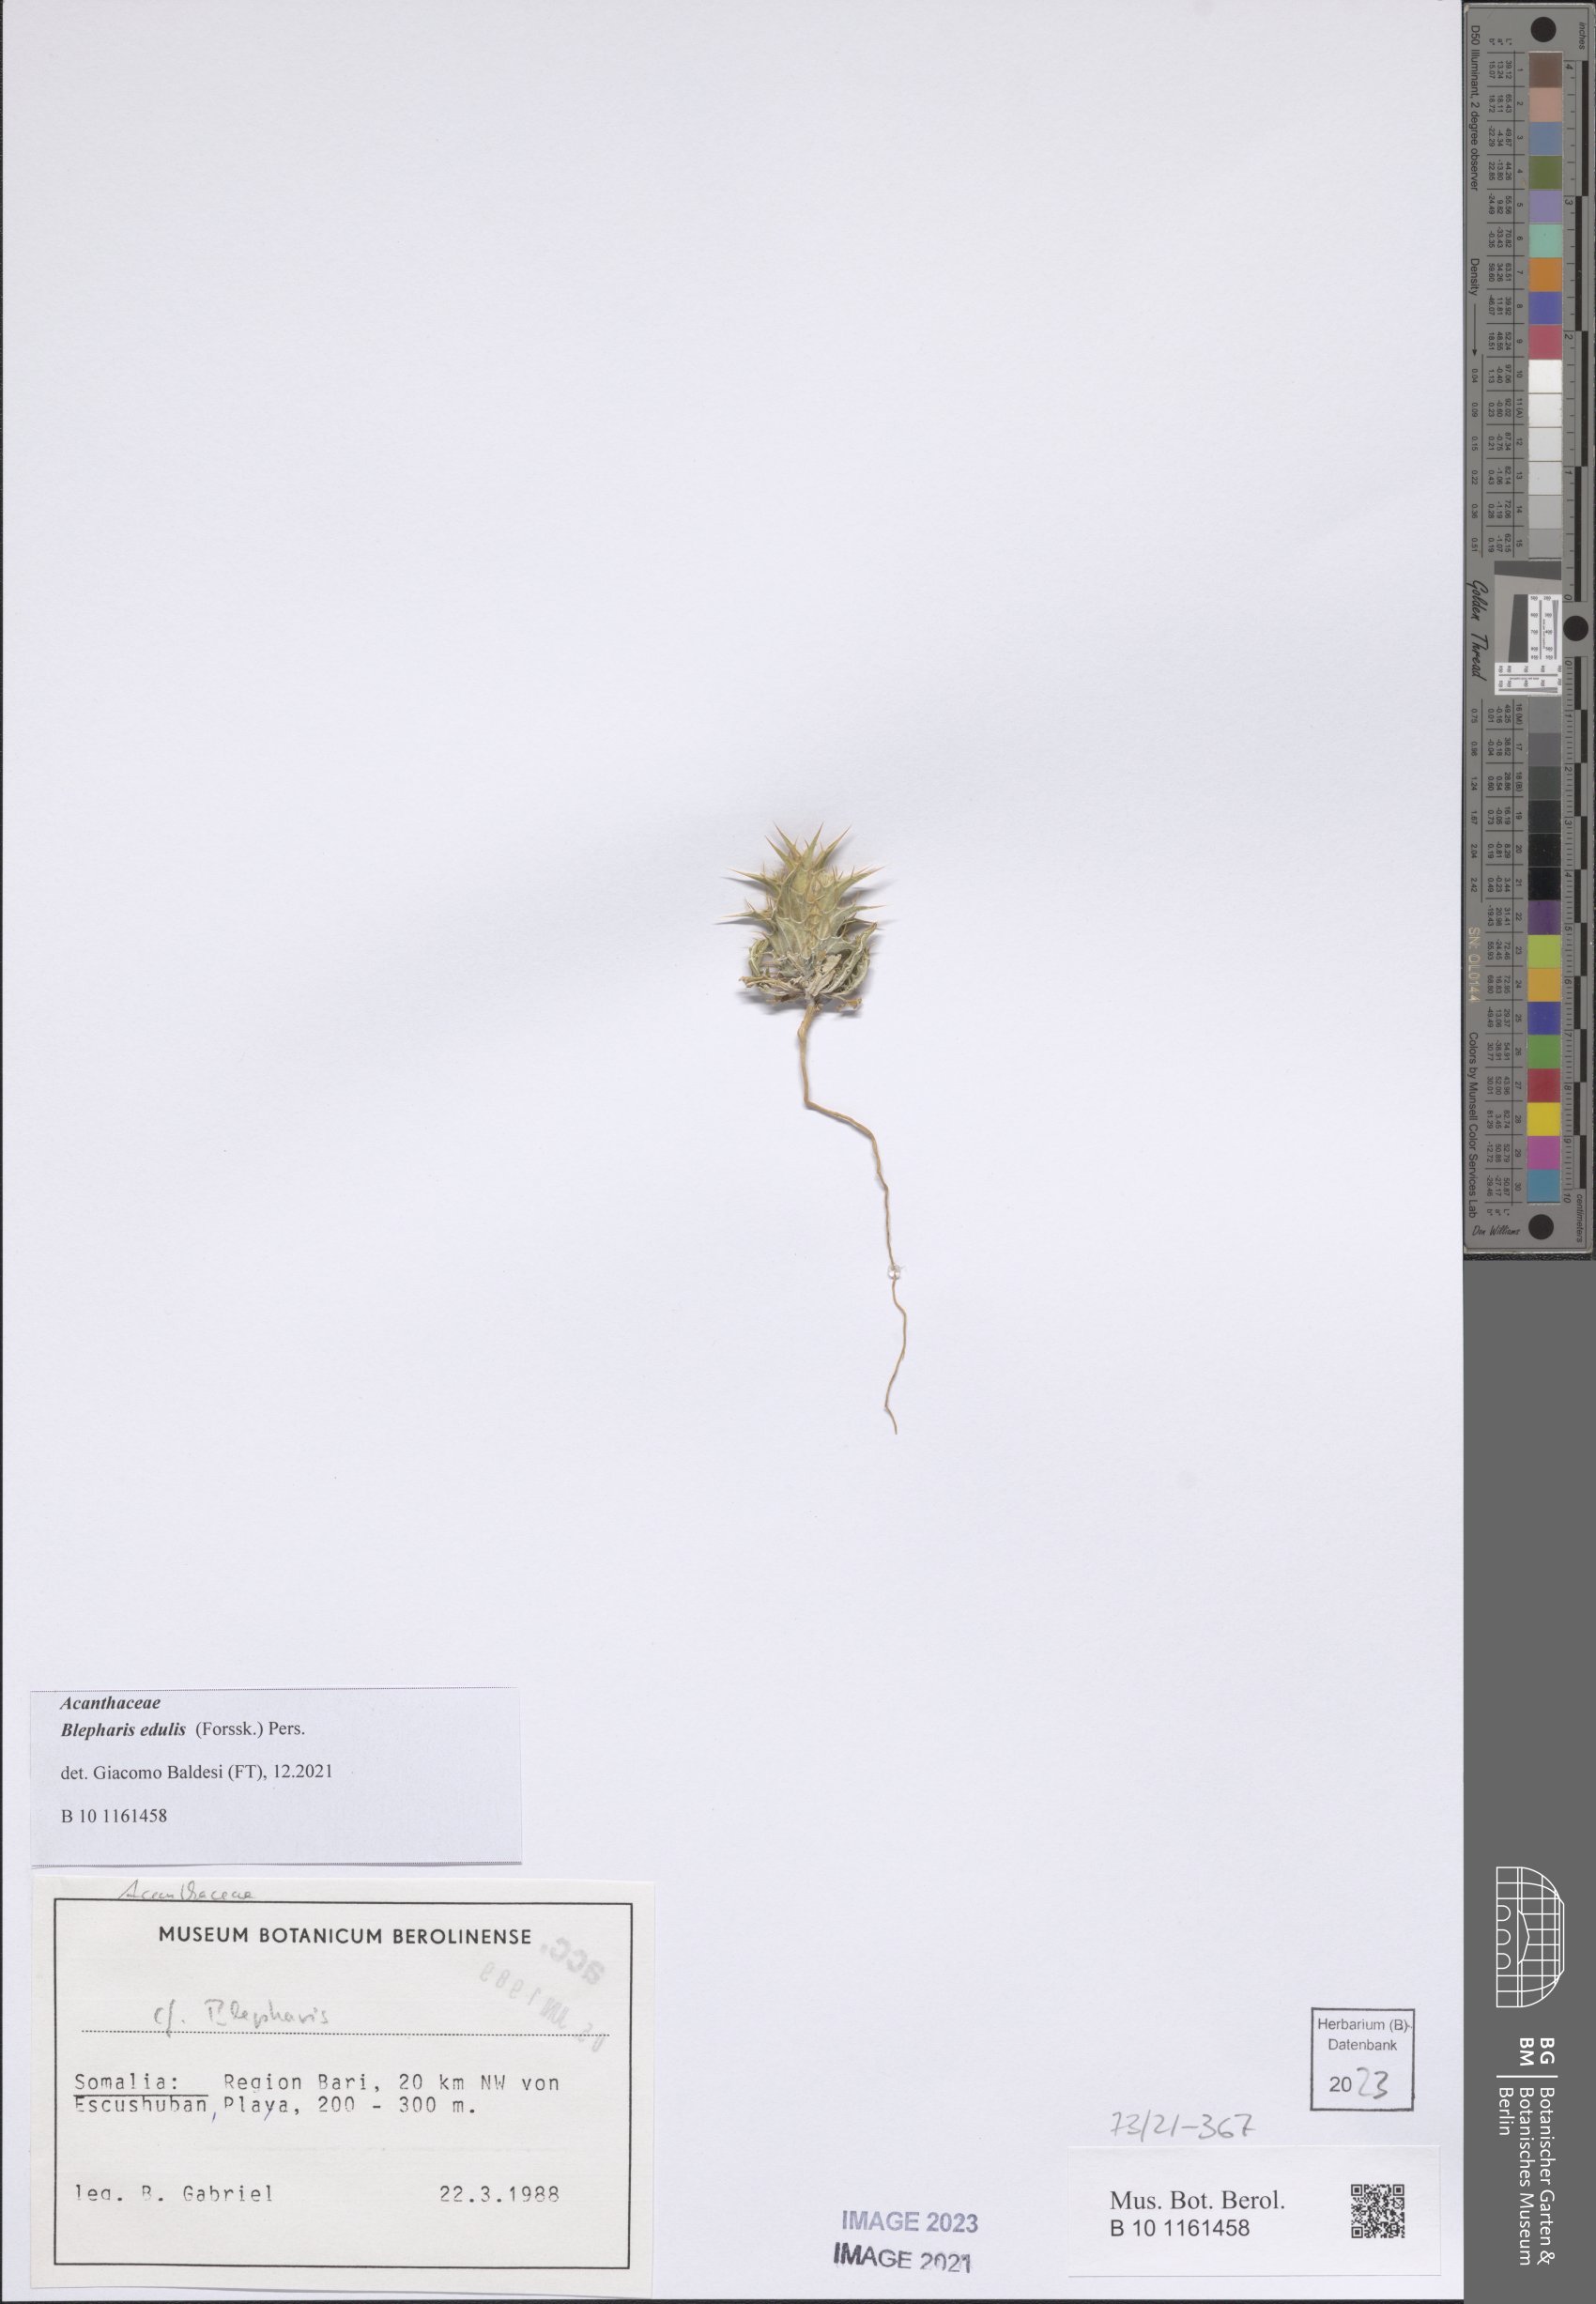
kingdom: Plantae
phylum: Tracheophyta
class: Magnoliopsida
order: Lamiales
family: Acanthaceae
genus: Blepharis
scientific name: Blepharis edulis
